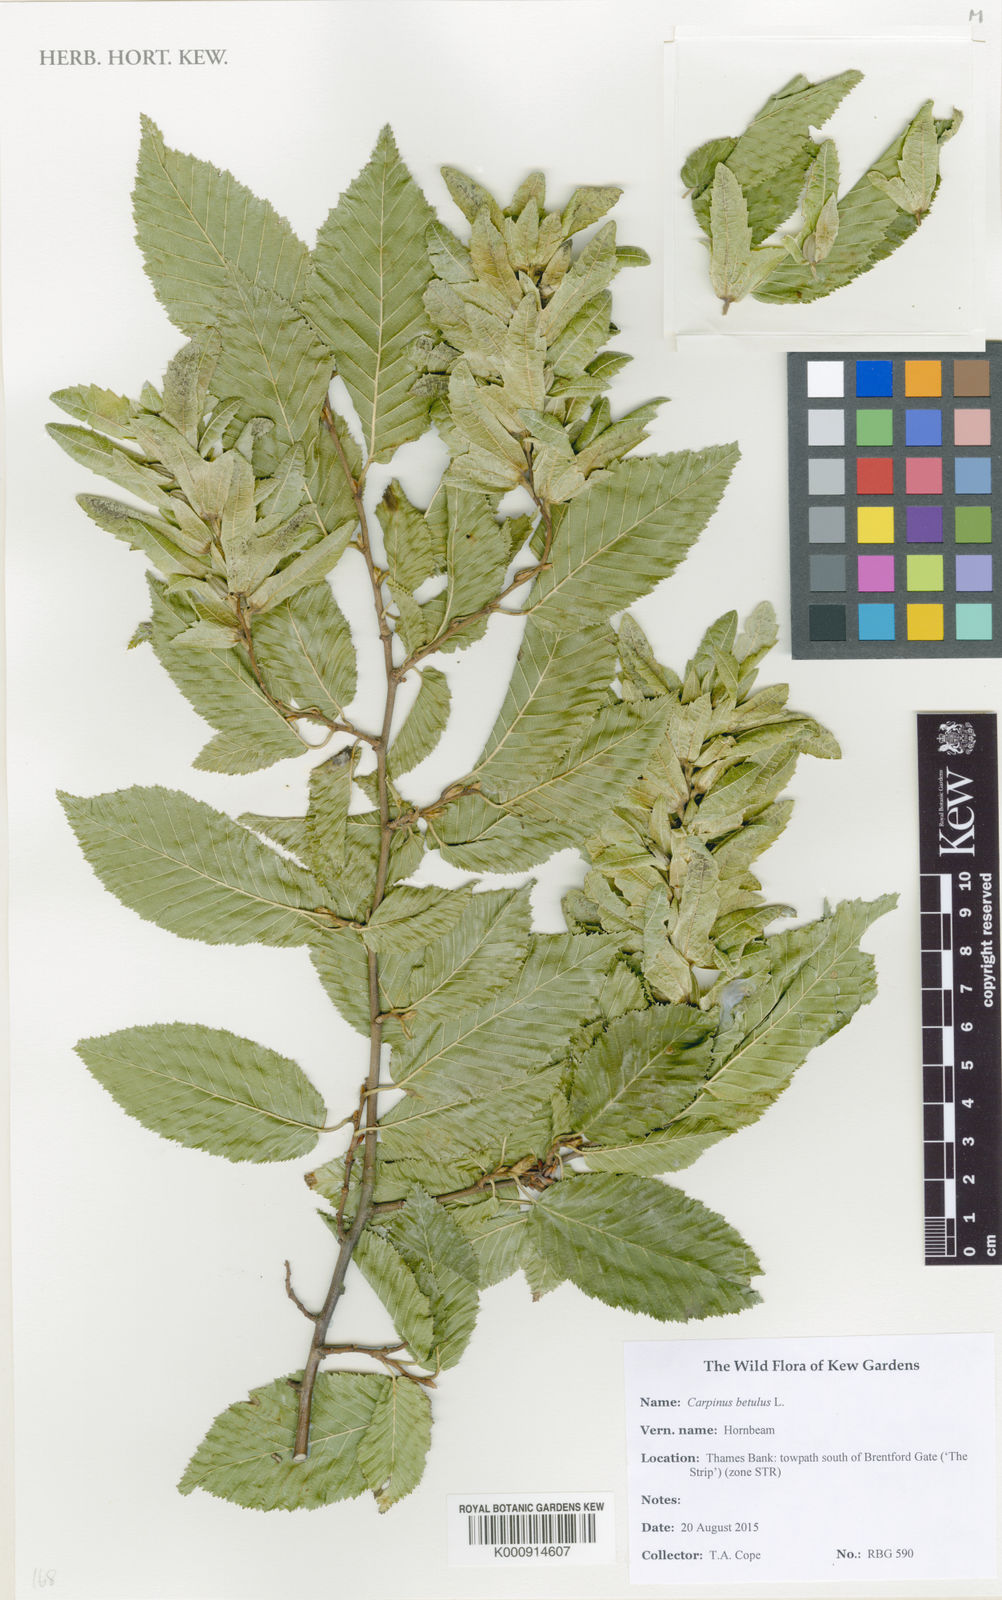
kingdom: Plantae
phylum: Tracheophyta
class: Magnoliopsida
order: Fagales
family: Betulaceae
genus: Carpinus
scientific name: Carpinus betulus
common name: Hornbeam
